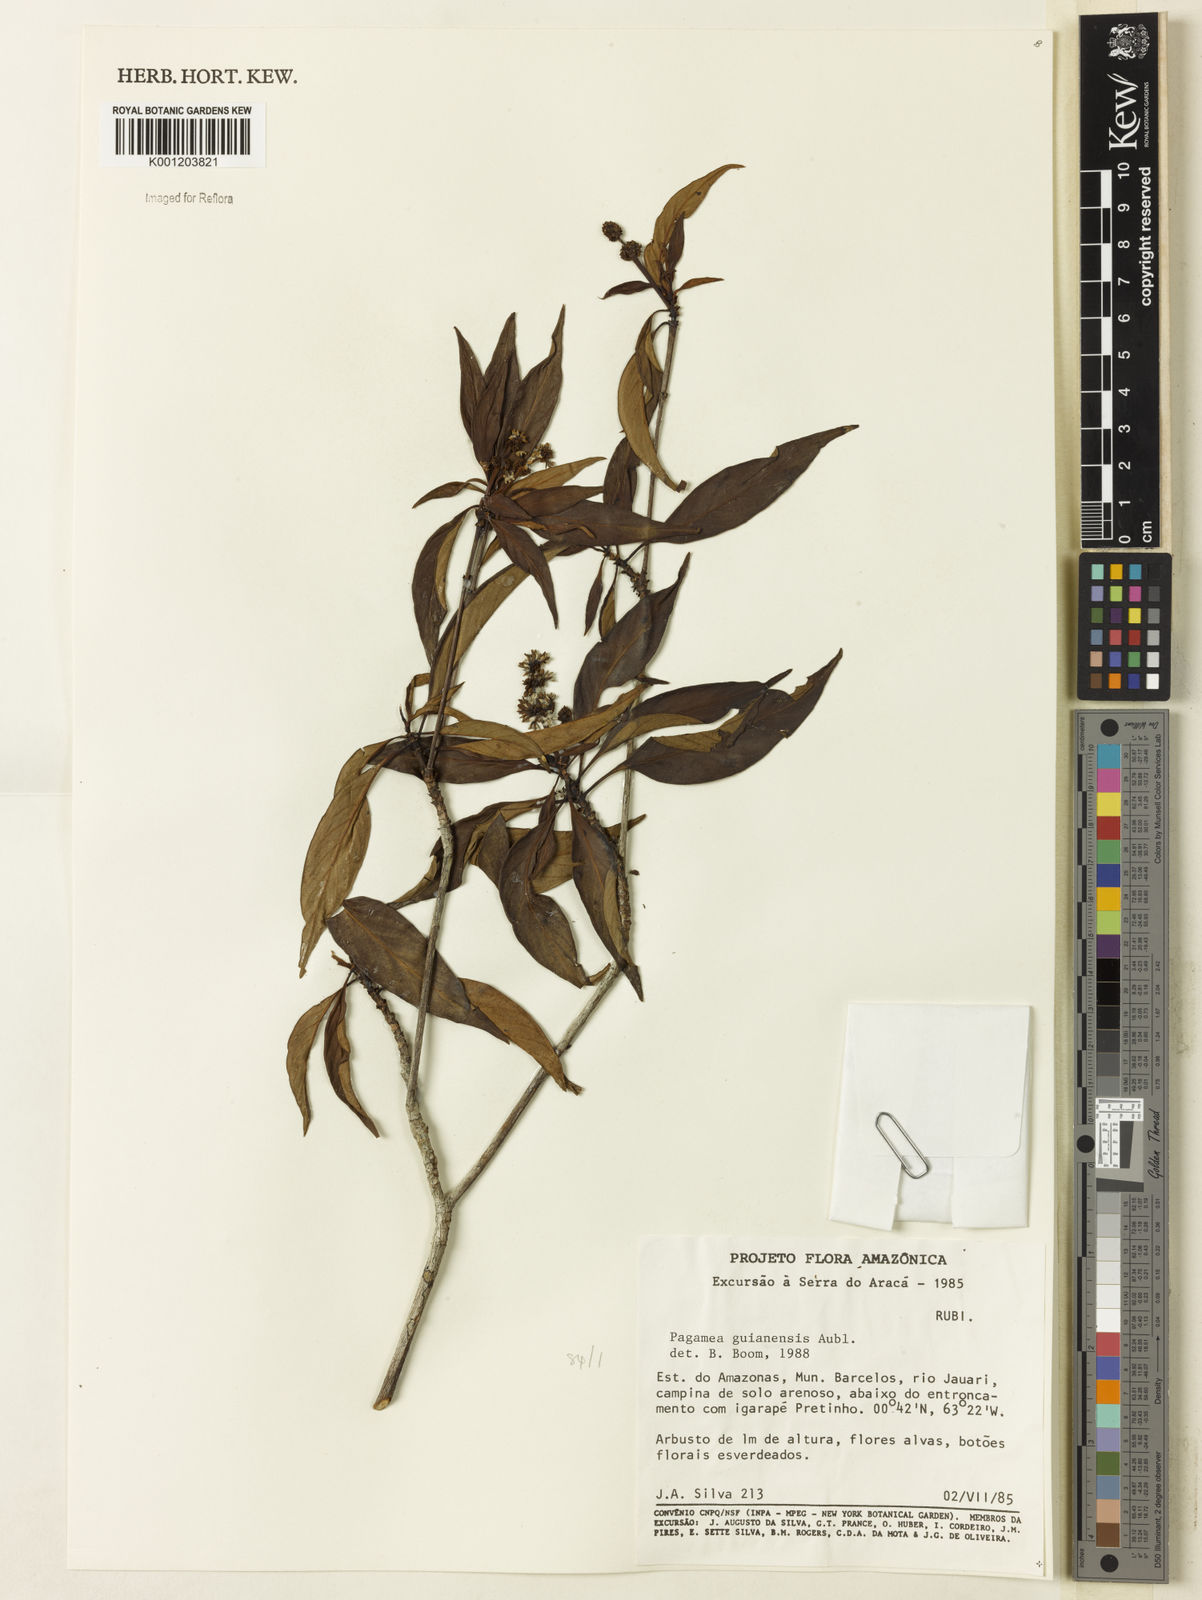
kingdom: Plantae
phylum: Tracheophyta
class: Magnoliopsida
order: Gentianales
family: Rubiaceae
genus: Pagamea
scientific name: Pagamea guianensis
